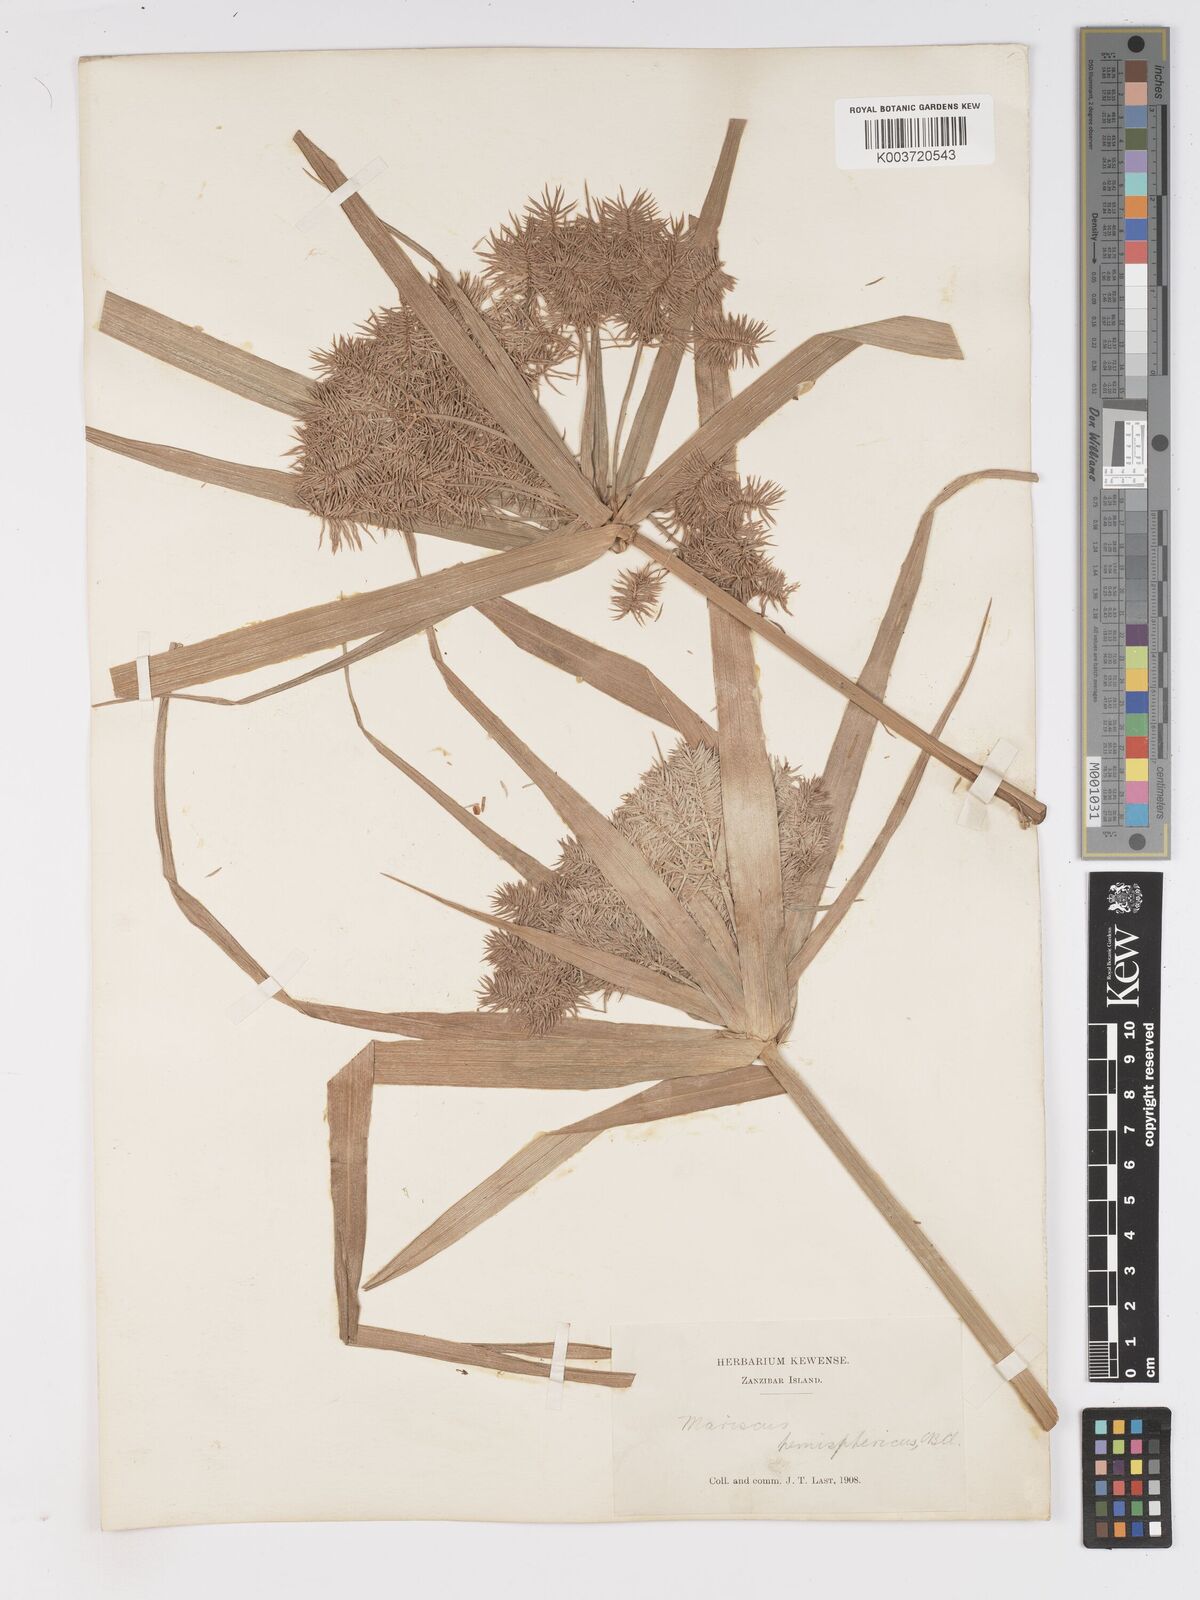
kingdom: Plantae
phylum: Tracheophyta
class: Liliopsida
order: Poales
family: Cyperaceae
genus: Cyperus
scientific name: Cyperus hemisphaericus
